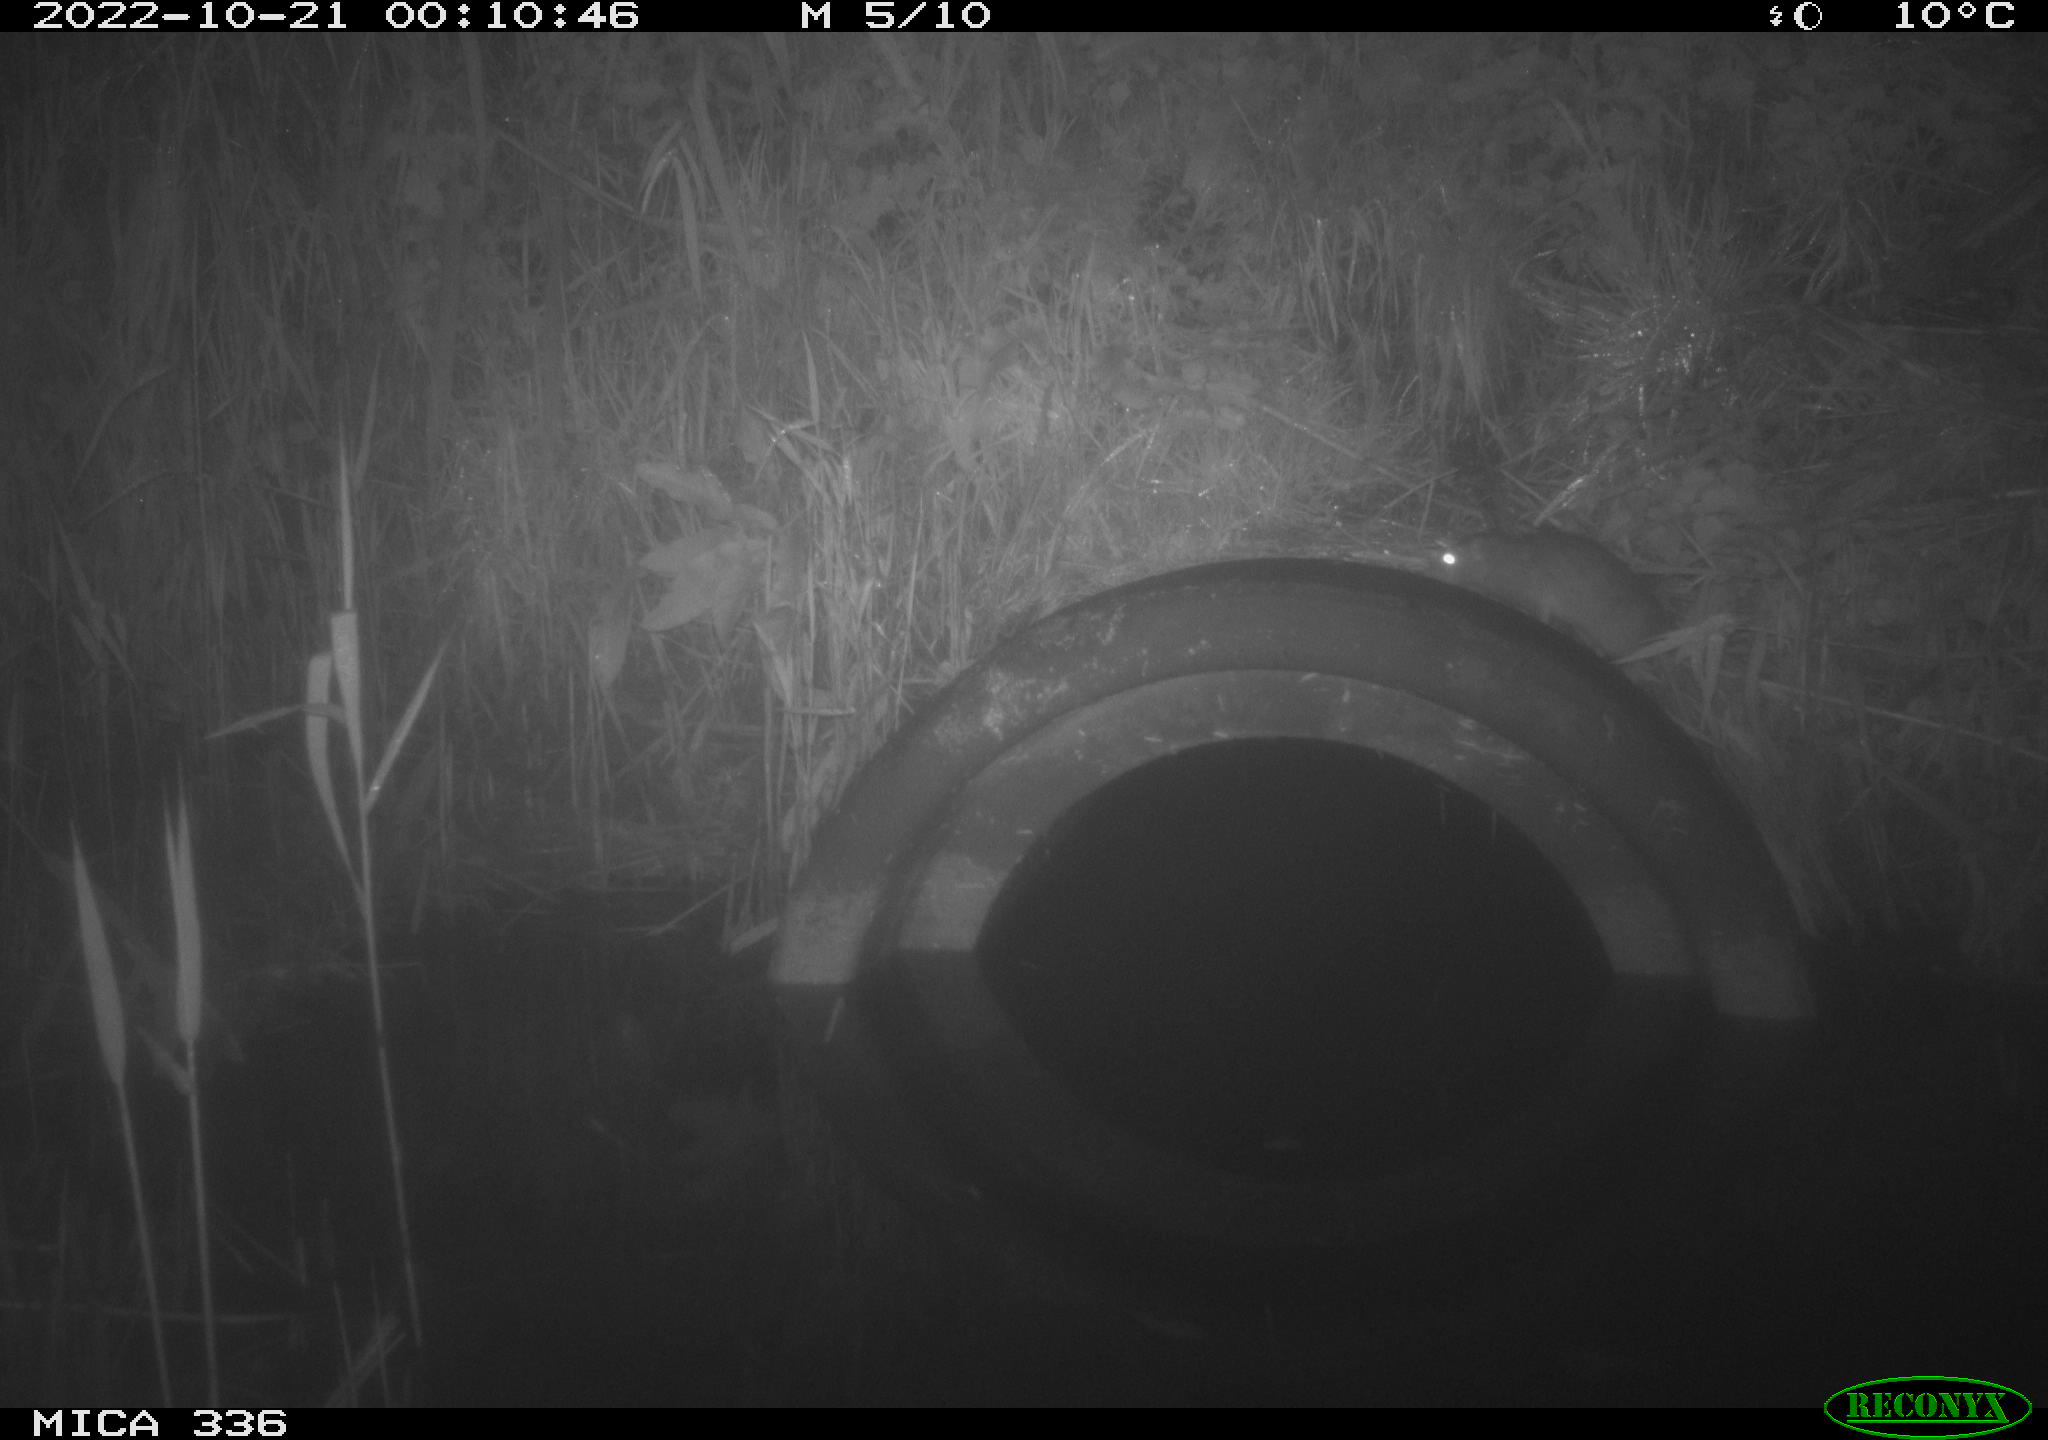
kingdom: Animalia
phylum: Chordata
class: Mammalia
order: Rodentia
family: Muridae
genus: Rattus
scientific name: Rattus norvegicus
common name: Brown rat
